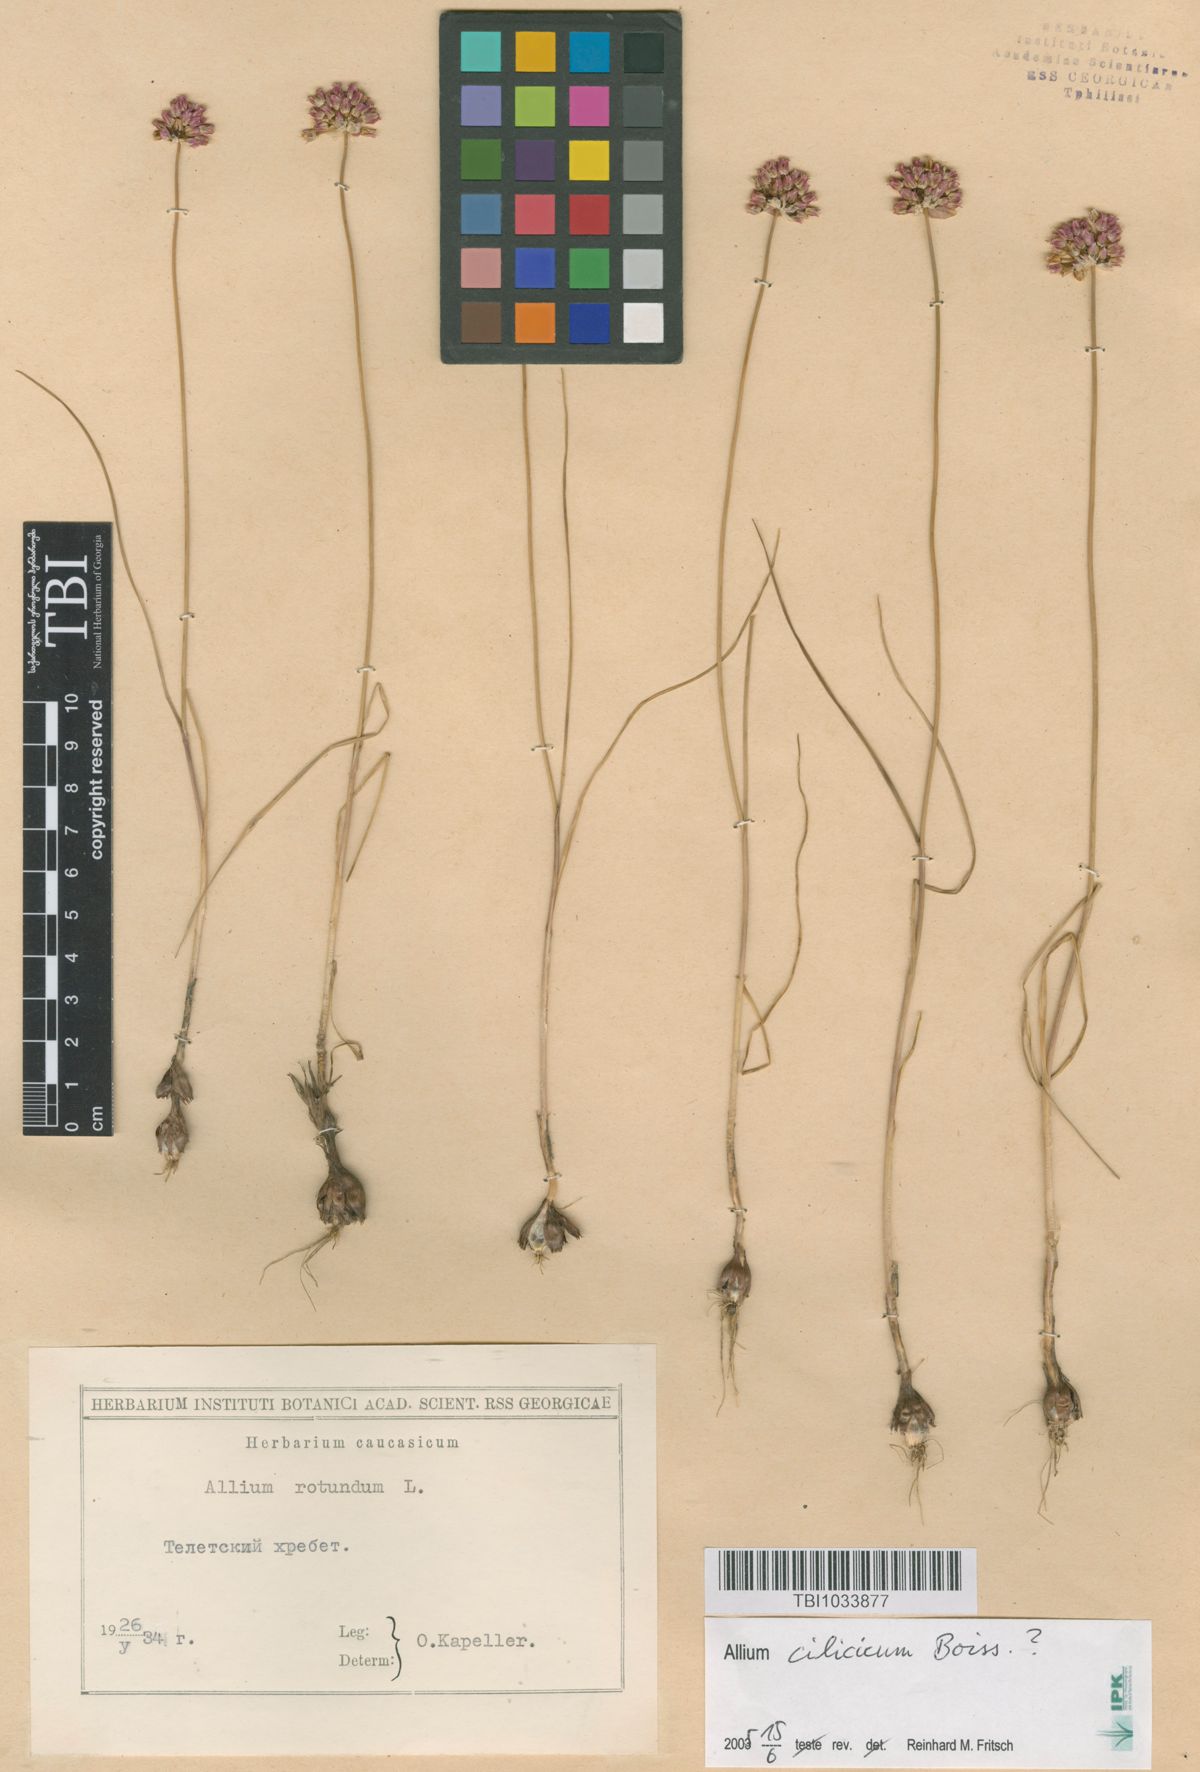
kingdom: Plantae
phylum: Tracheophyta
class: Liliopsida
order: Asparagales
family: Amaryllidaceae
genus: Allium
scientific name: Allium rotundum
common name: Sand leek
